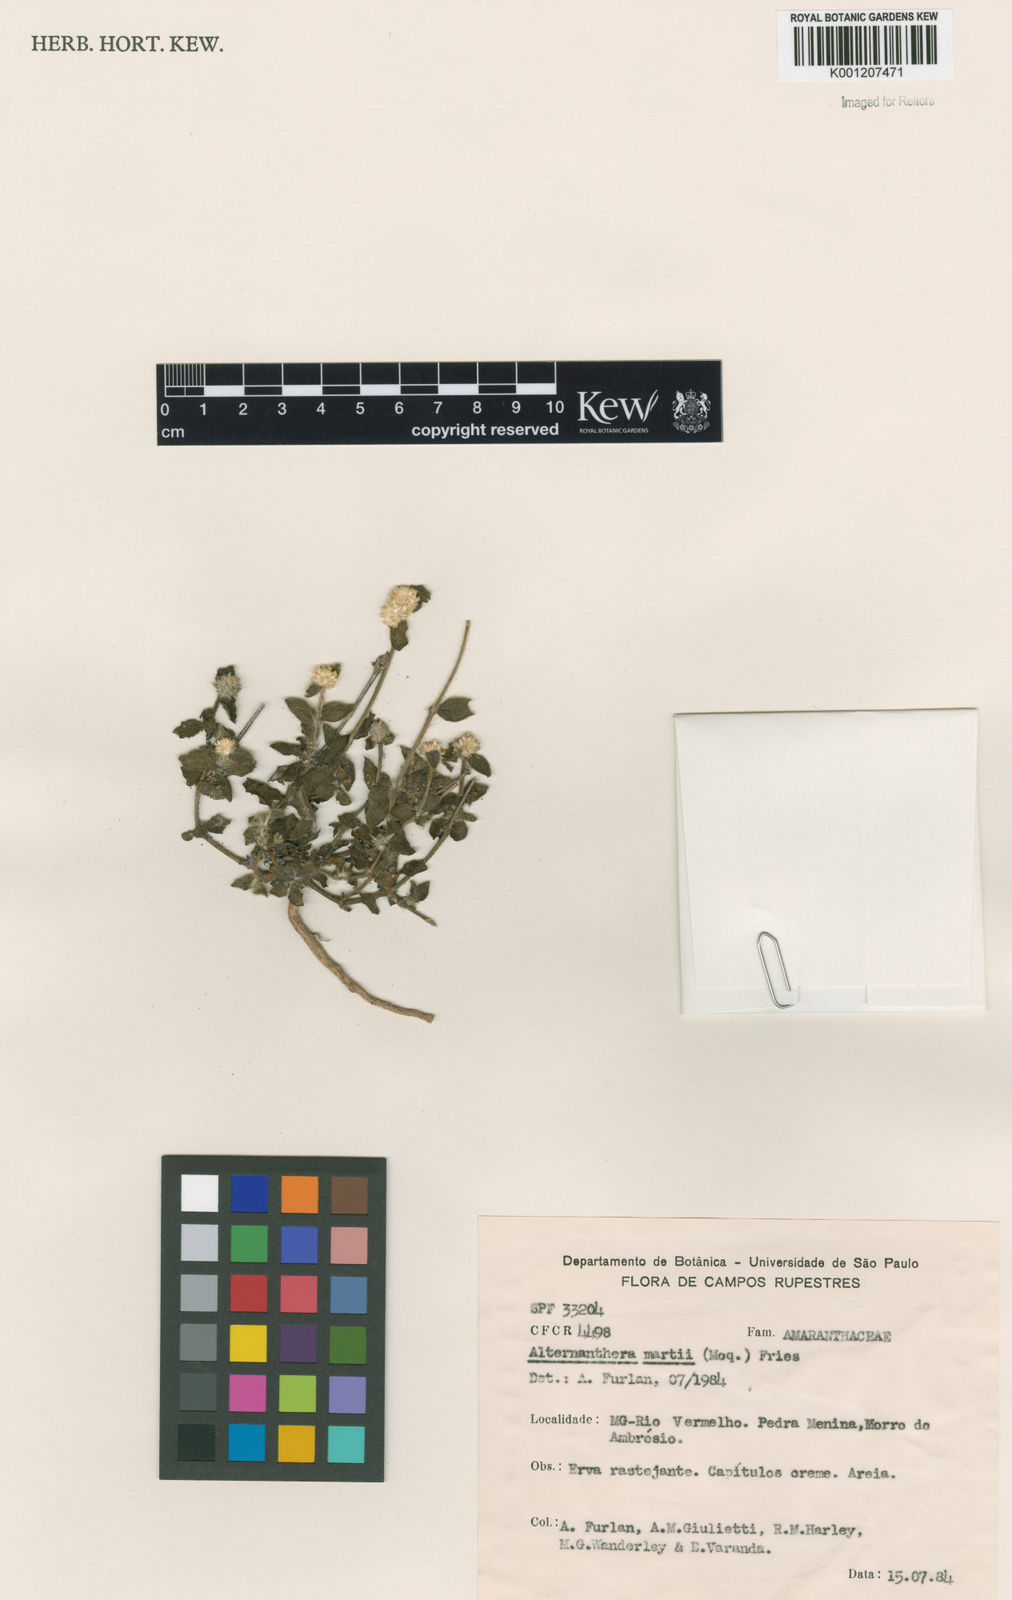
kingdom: Plantae
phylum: Tracheophyta
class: Magnoliopsida
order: Caryophyllales
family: Amaranthaceae
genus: Alternanthera
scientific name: Alternanthera martii
